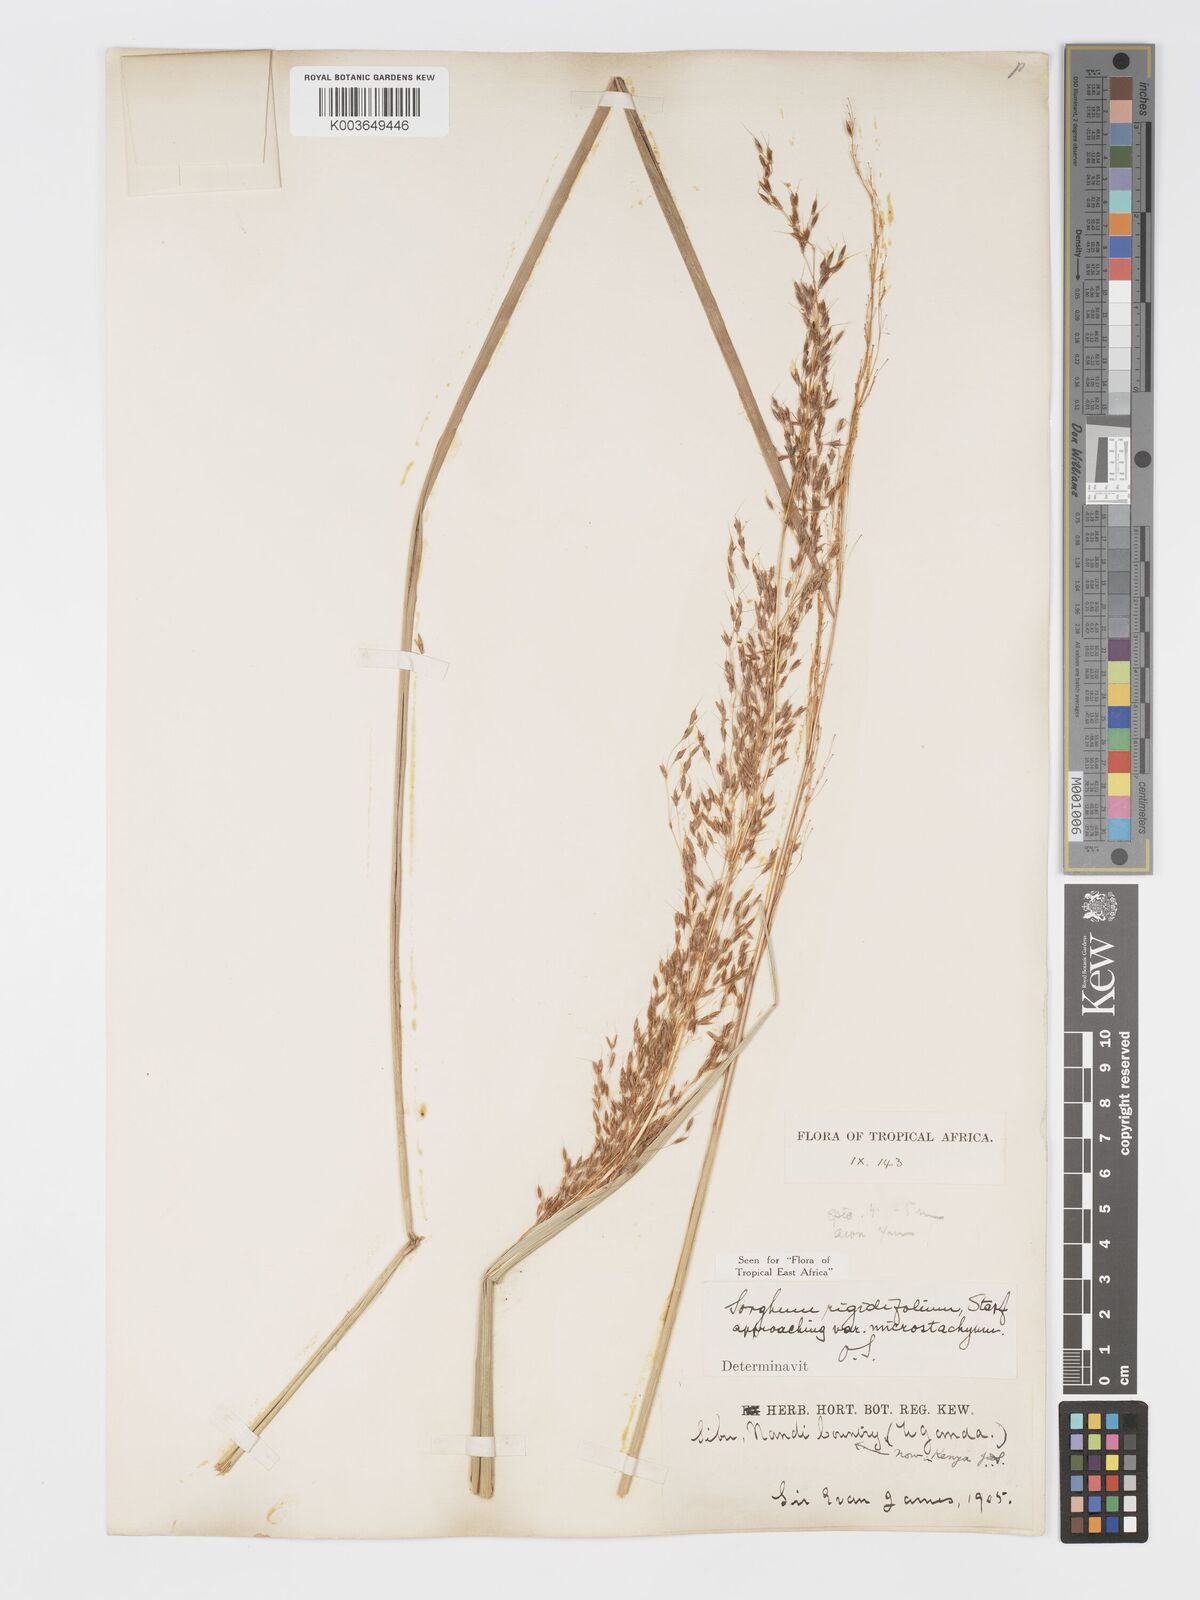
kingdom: Plantae
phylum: Tracheophyta
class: Liliopsida
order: Poales
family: Poaceae
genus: Sorghastrum
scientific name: Sorghastrum stipoides
